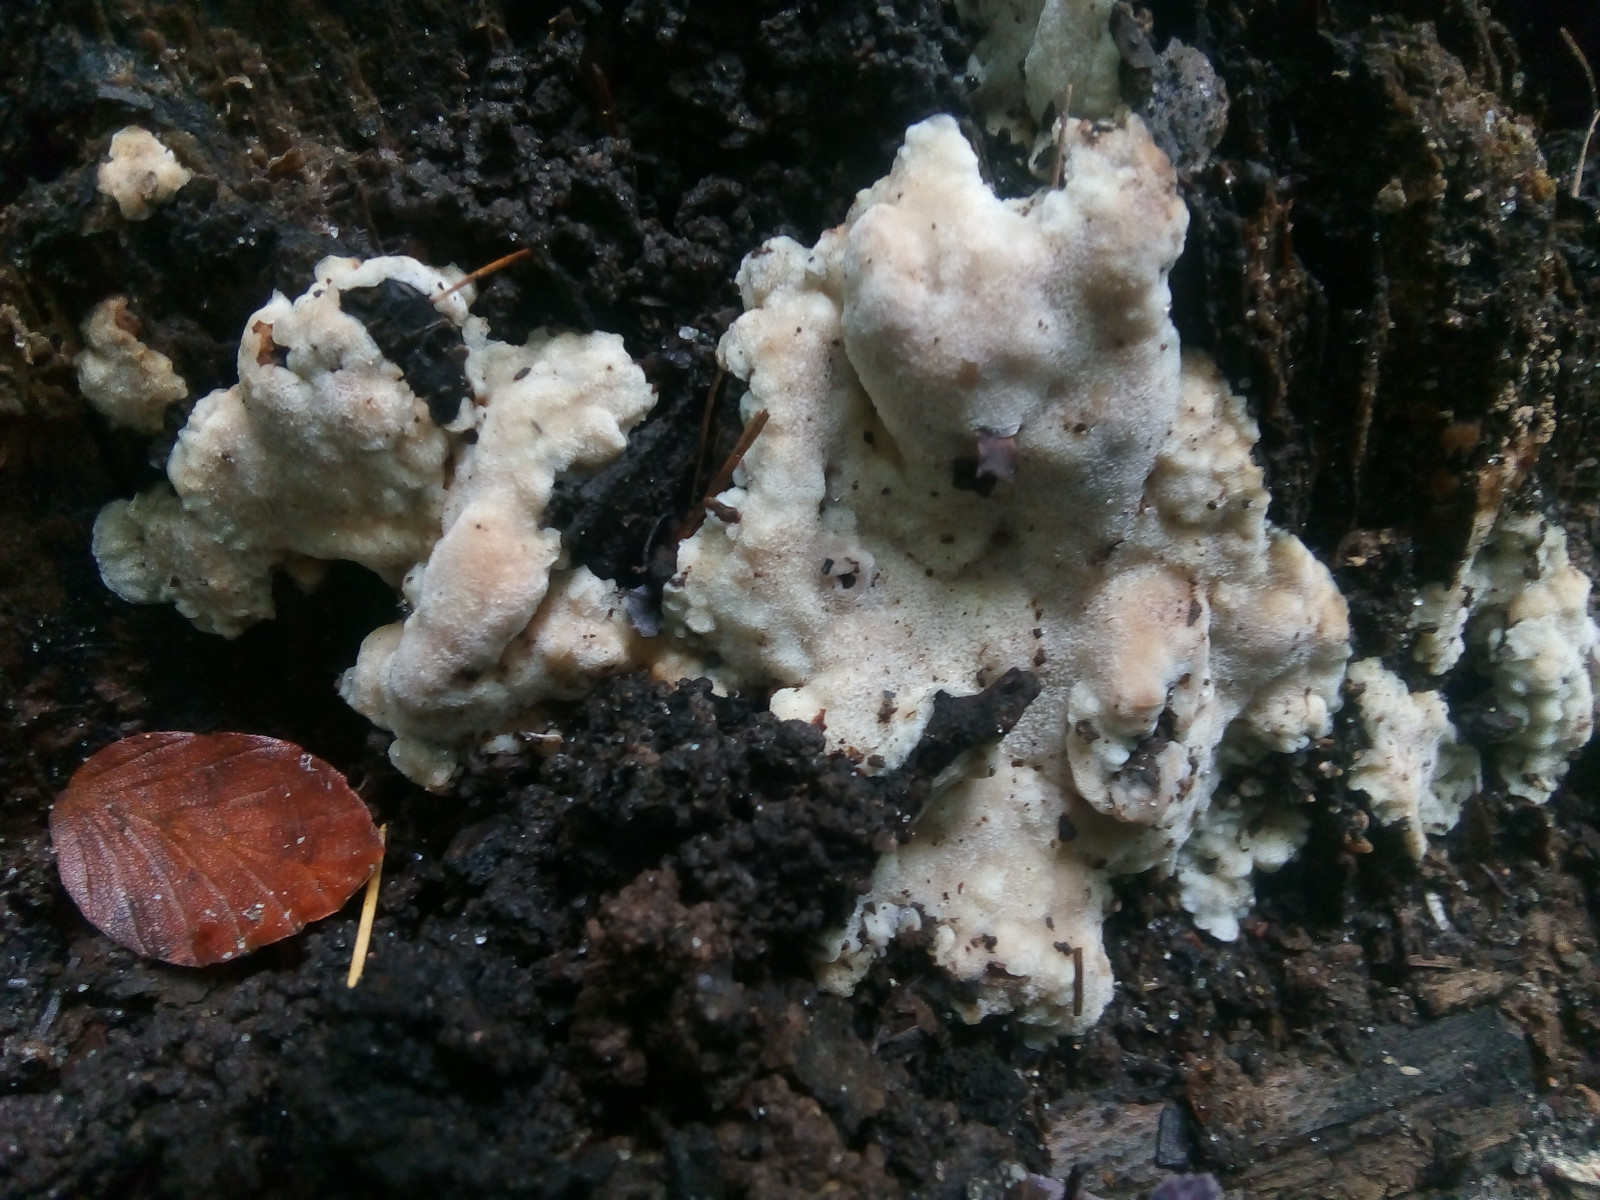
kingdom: Fungi
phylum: Basidiomycota
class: Agaricomycetes
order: Polyporales
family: Meruliaceae
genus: Physisporinus
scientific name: Physisporinus vitreus
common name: mastesvamp
